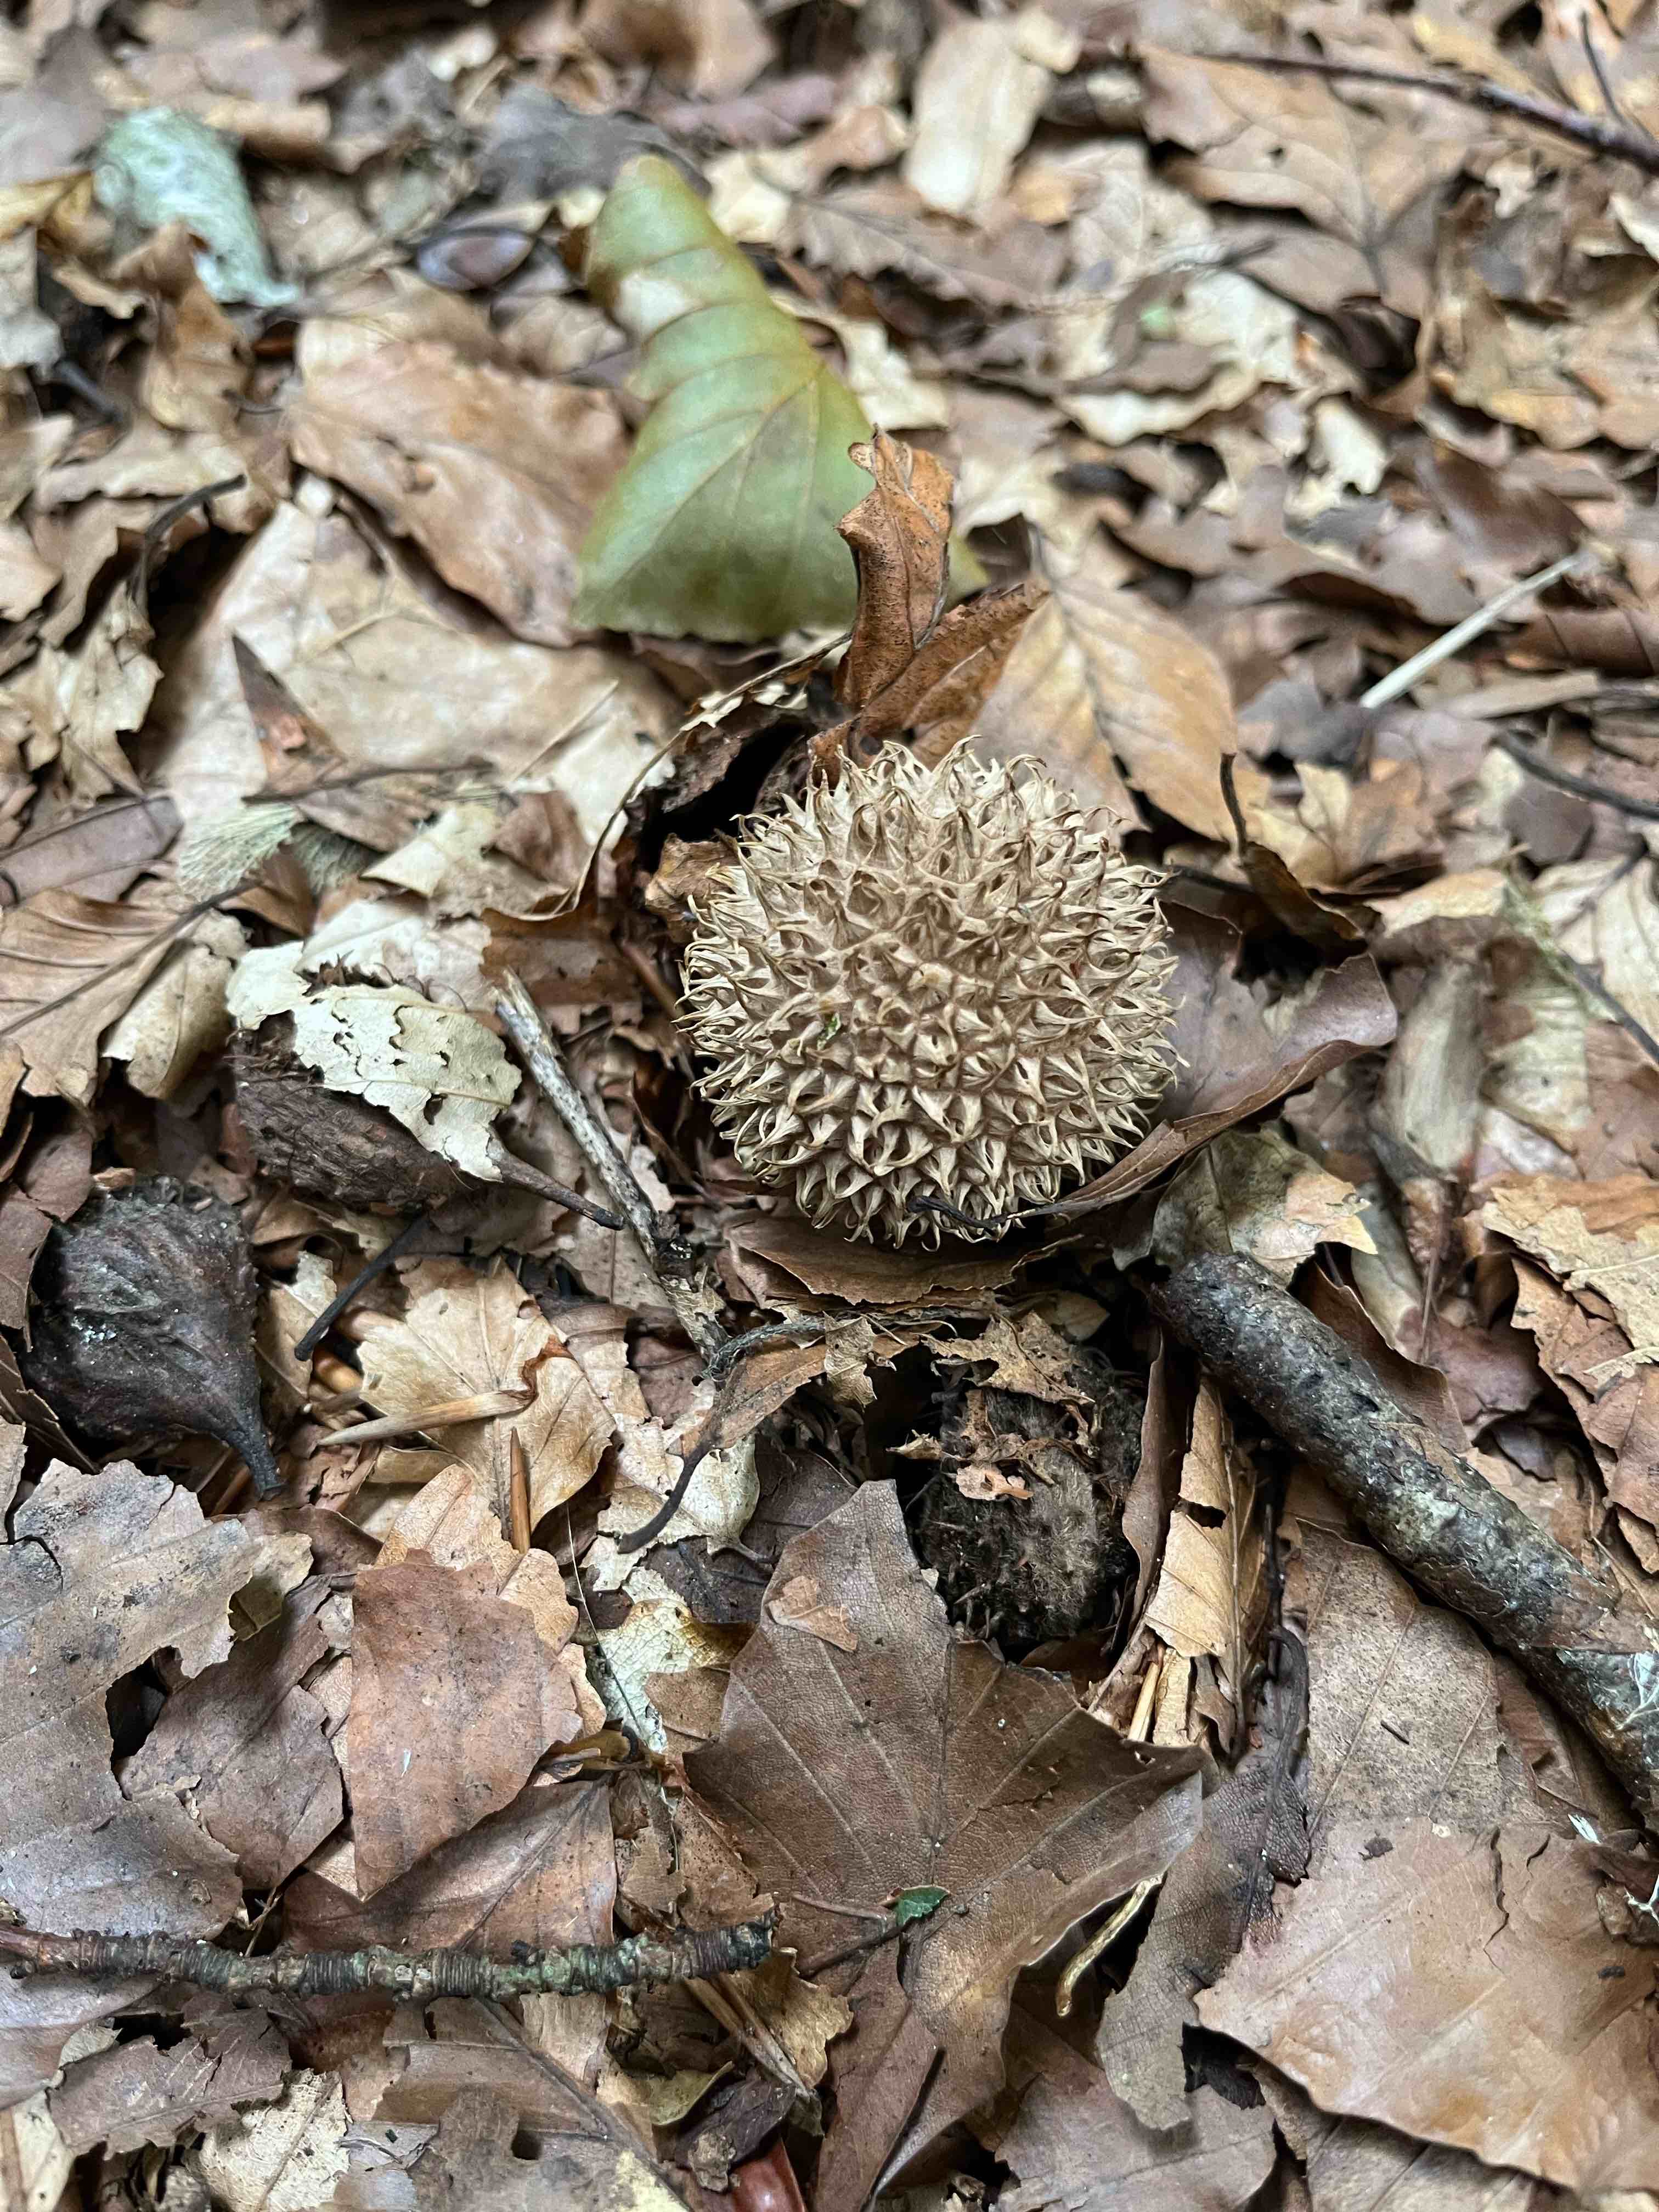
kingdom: Fungi
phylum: Basidiomycota
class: Agaricomycetes
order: Agaricales
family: Lycoperdaceae
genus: Lycoperdon
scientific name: Lycoperdon echinatum
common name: pindsvine-støvbold
